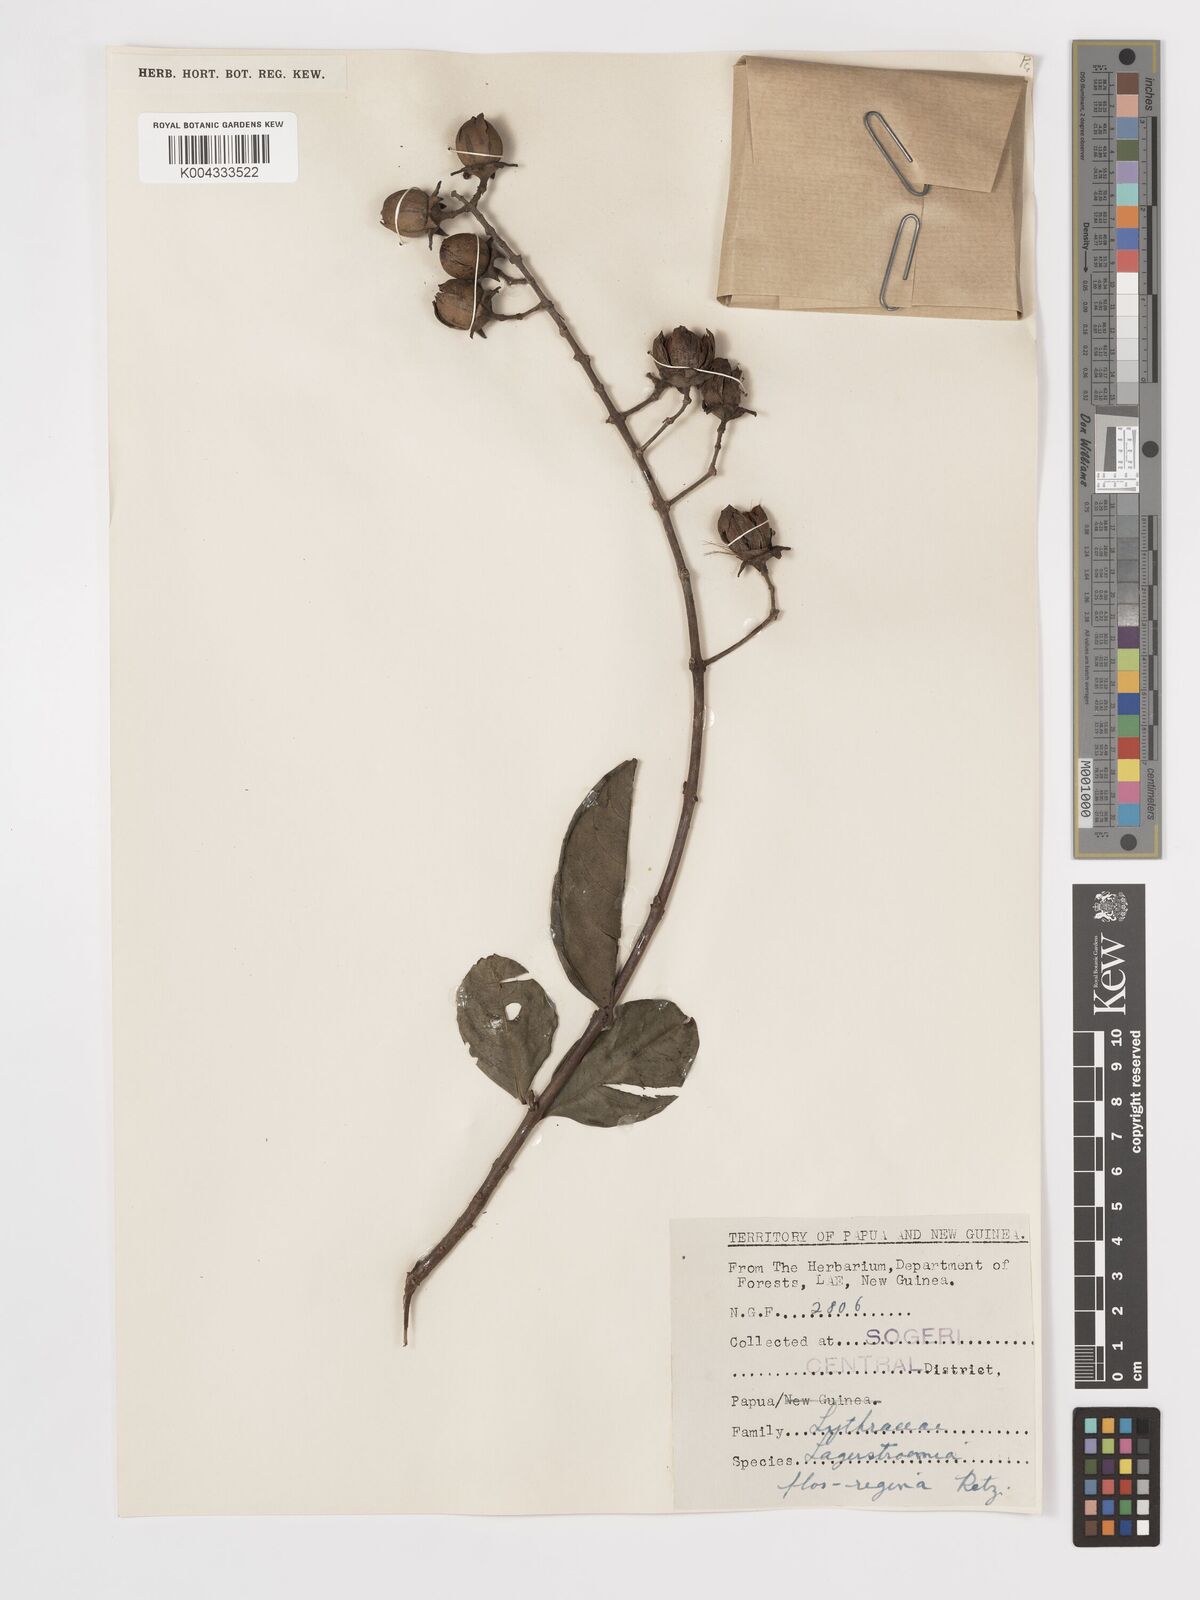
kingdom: Plantae
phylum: Tracheophyta
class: Magnoliopsida
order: Myrtales
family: Lythraceae
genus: Lagerstroemia
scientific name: Lagerstroemia speciosa
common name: Queen's crape-myrtle
